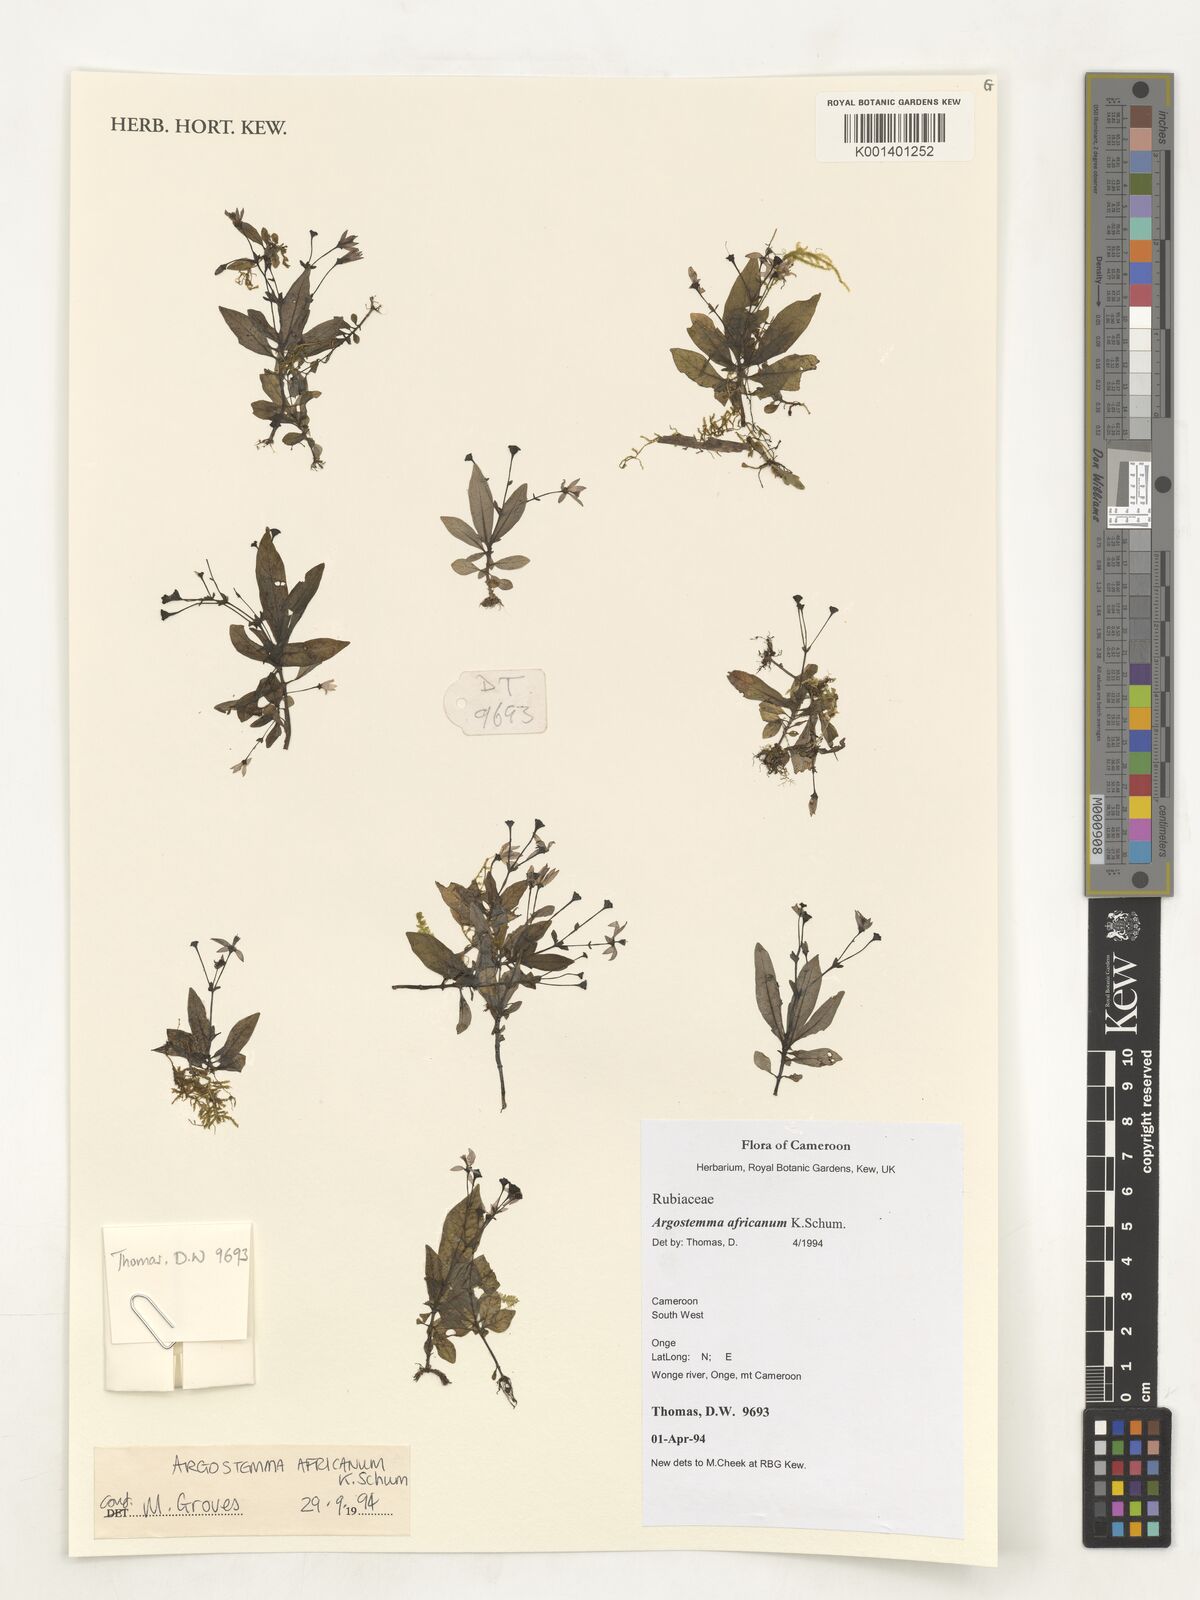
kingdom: Plantae
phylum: Tracheophyta
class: Magnoliopsida
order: Gentianales
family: Rubiaceae
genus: Argostemma
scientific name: Argostemma africanum
